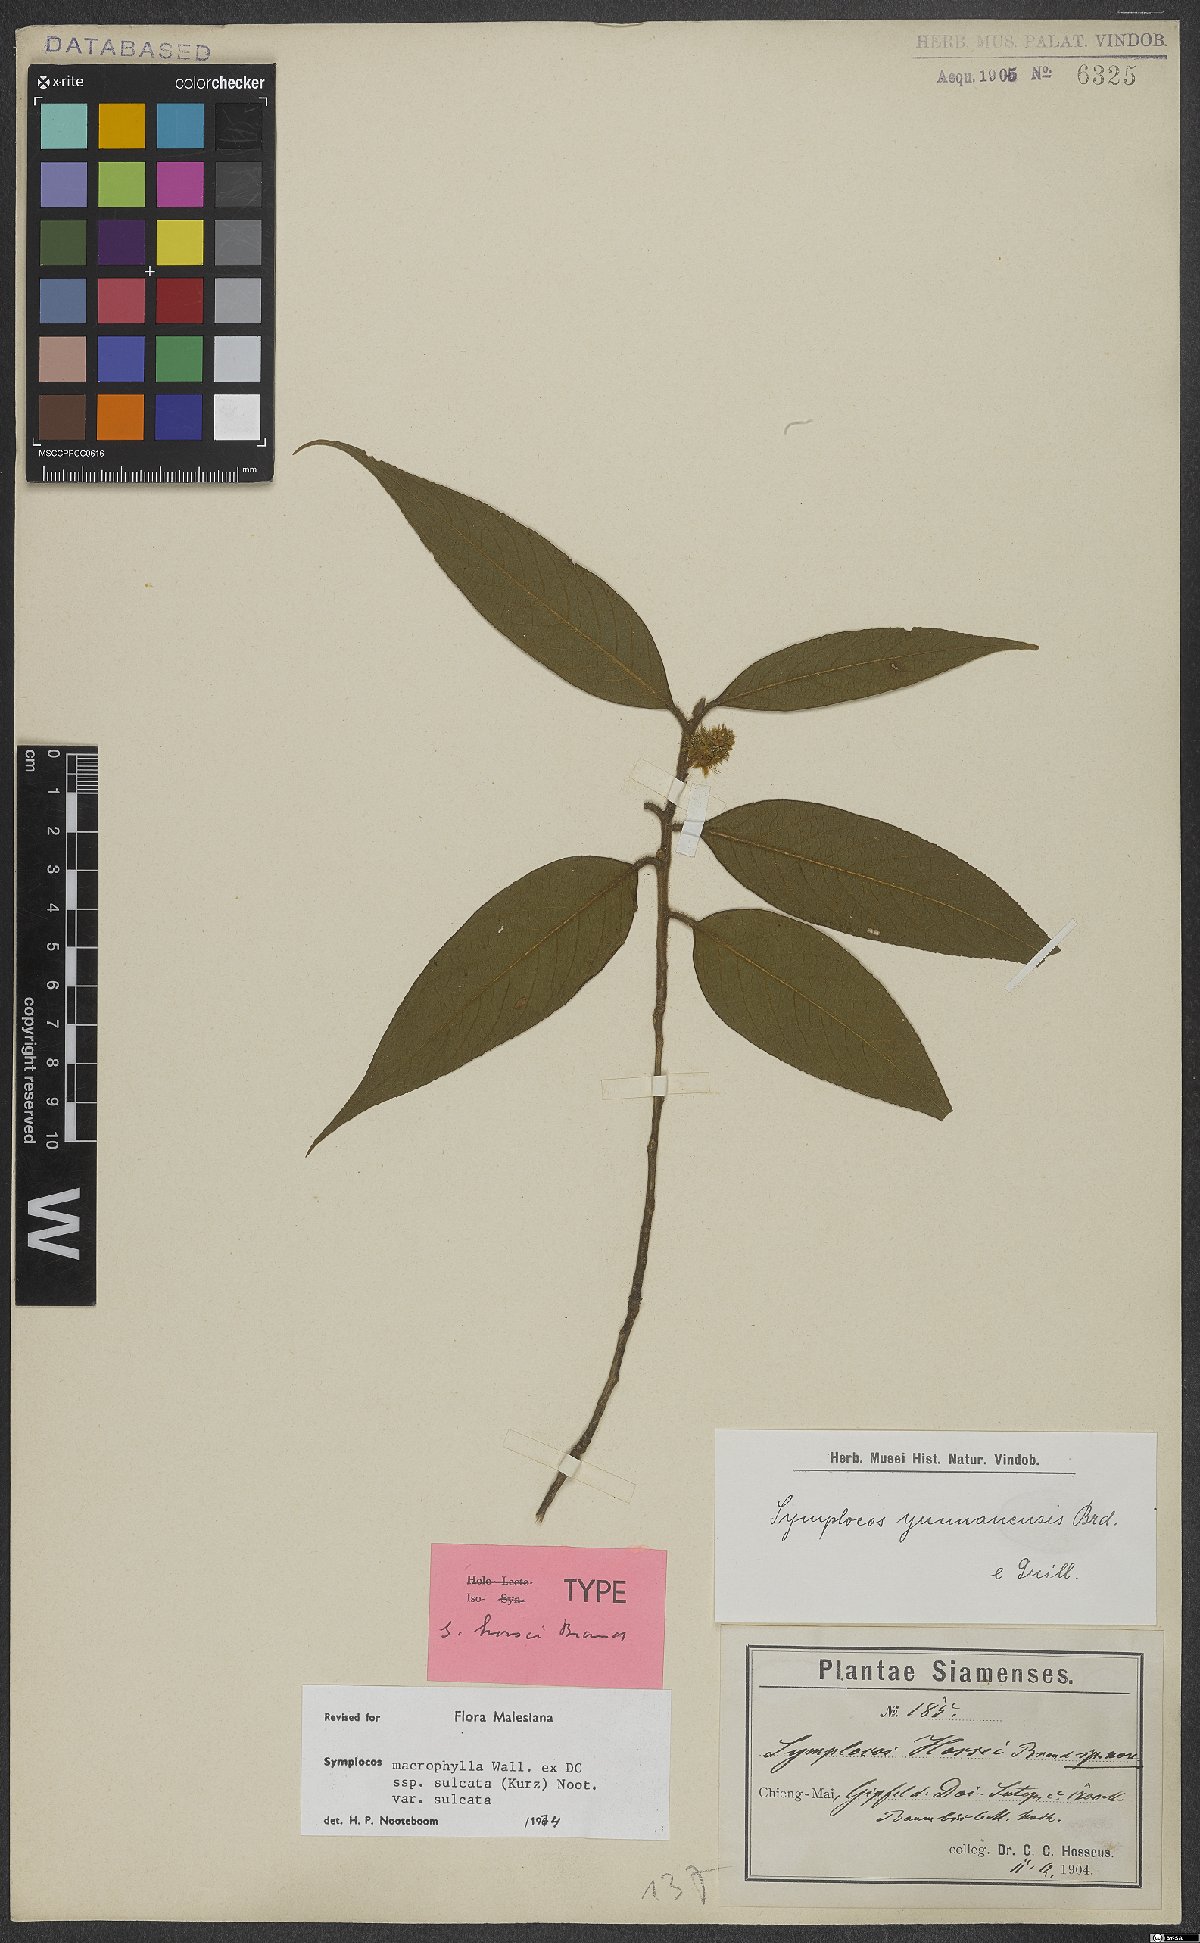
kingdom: Plantae
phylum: Tracheophyta
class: Magnoliopsida
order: Ericales
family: Symplocaceae
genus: Symplocos
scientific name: Symplocos sulcata
